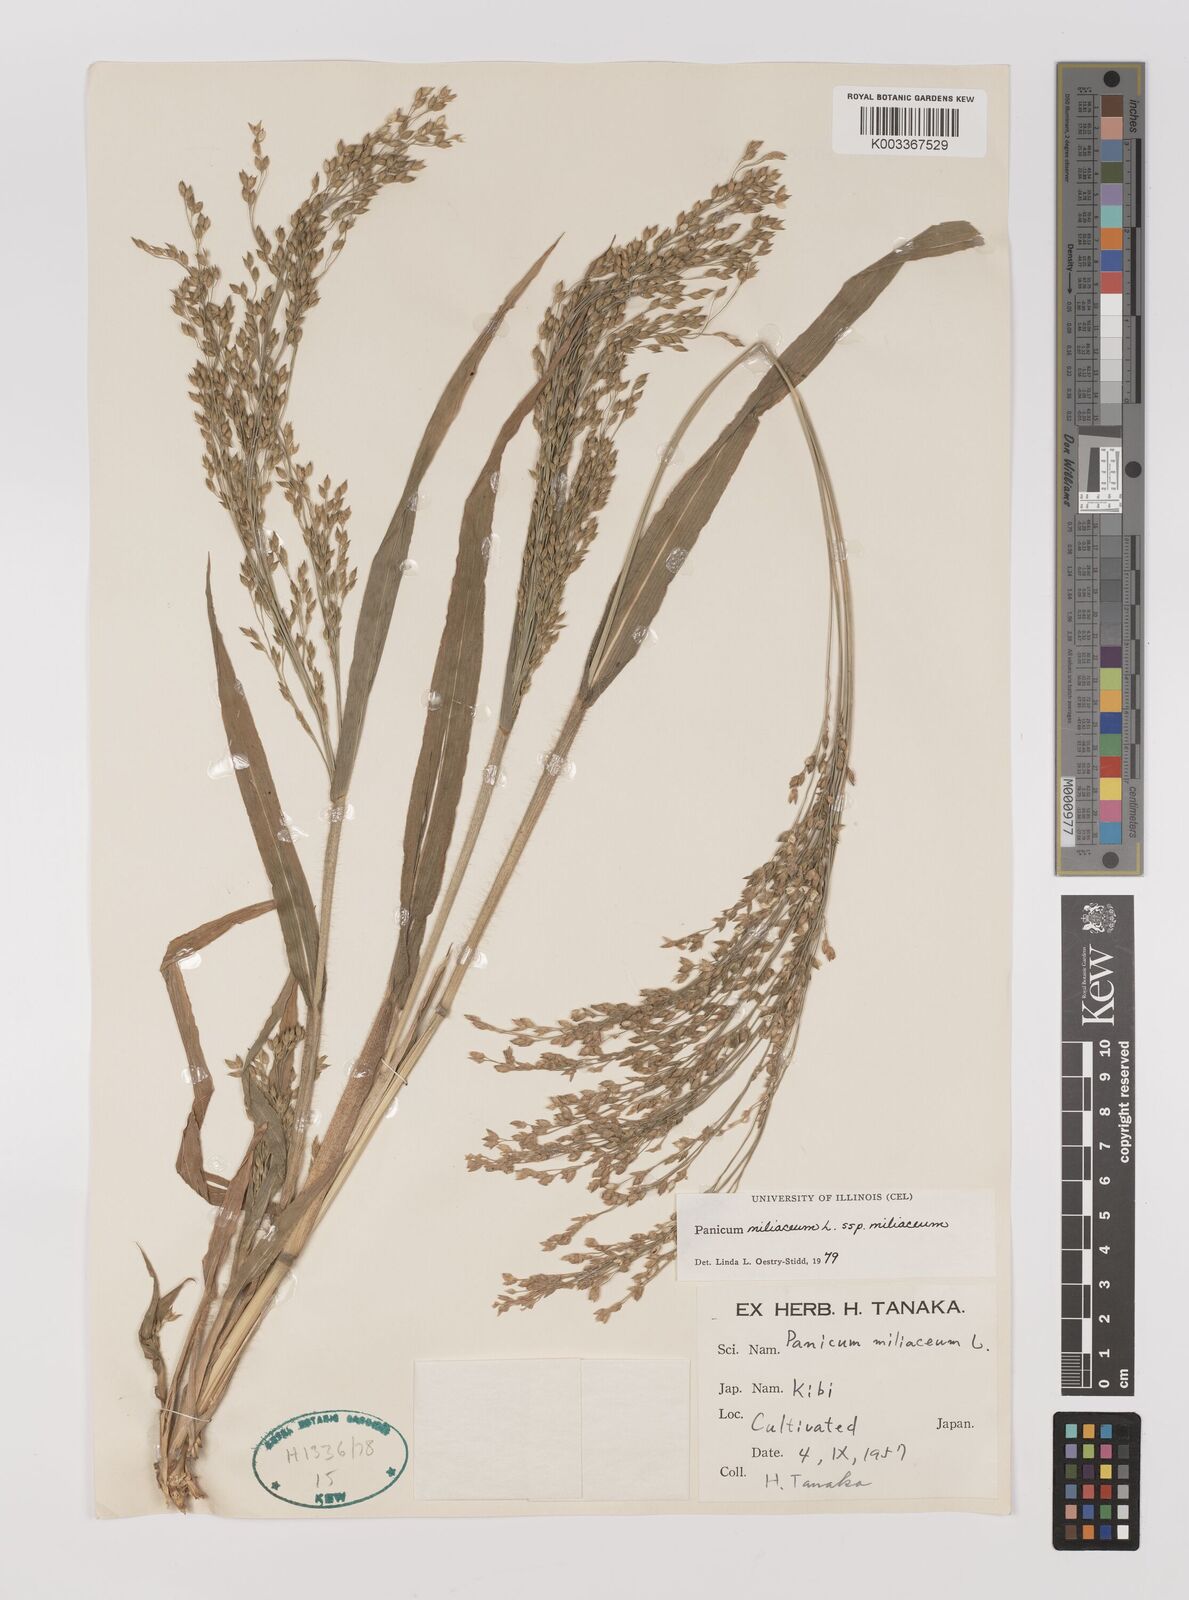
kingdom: Plantae
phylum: Tracheophyta
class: Liliopsida
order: Poales
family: Poaceae
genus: Panicum
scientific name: Panicum miliaceum
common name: Common millet
